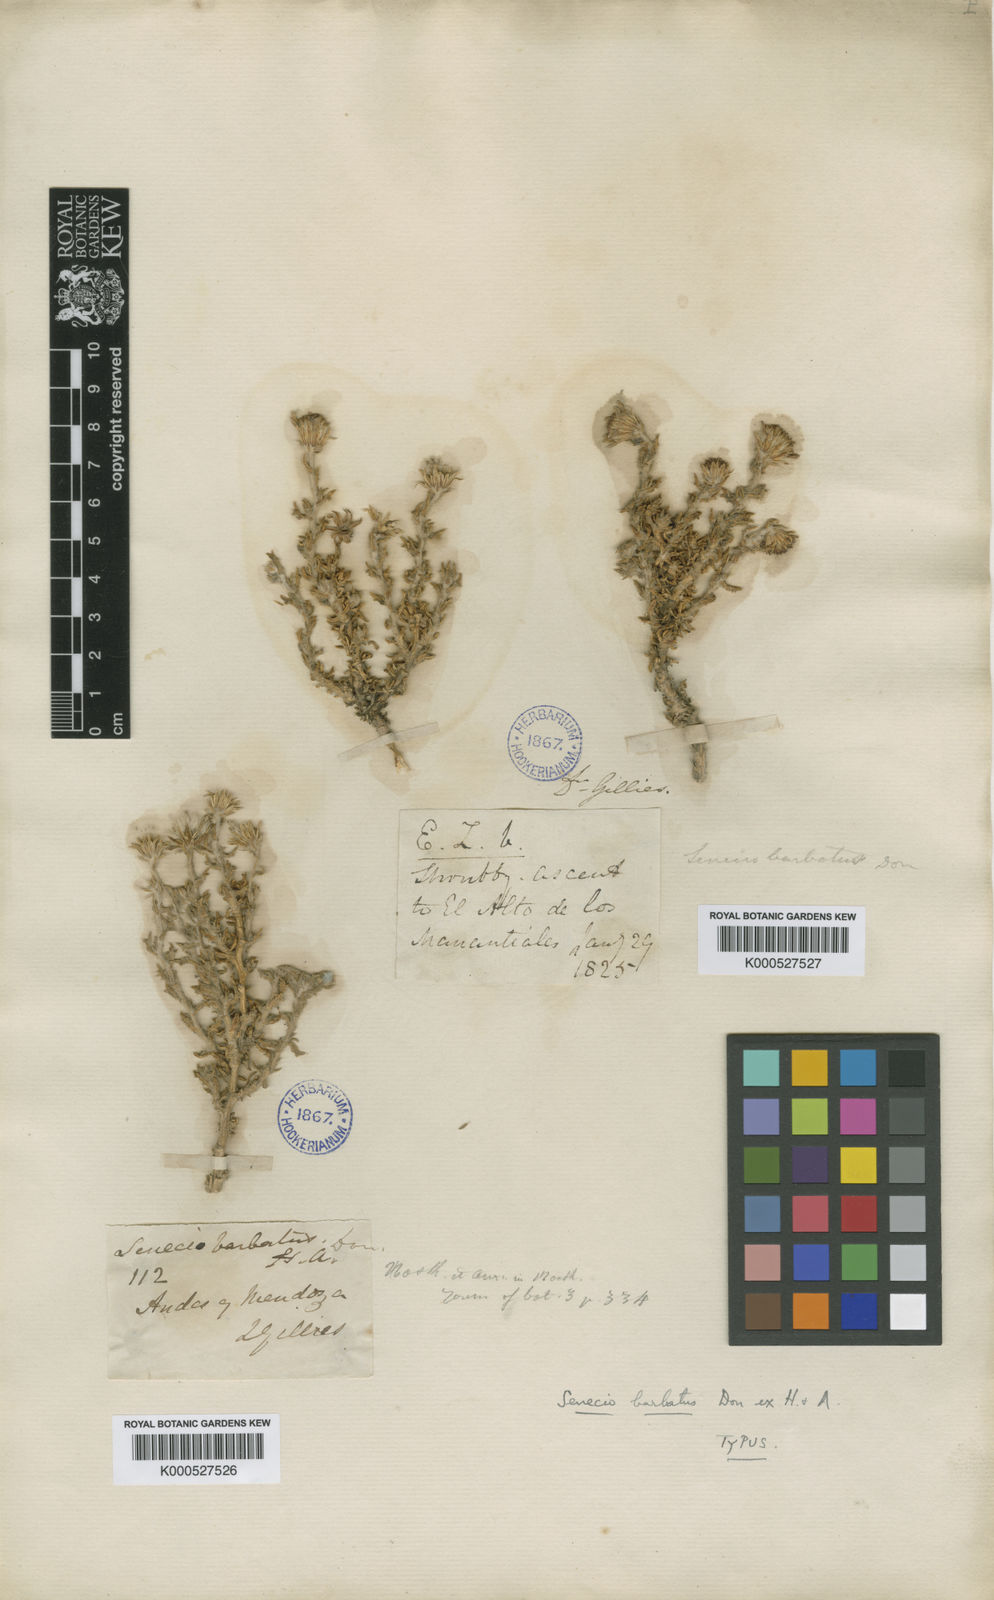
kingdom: Plantae
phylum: Tracheophyta
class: Magnoliopsida
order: Asterales
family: Asteraceae
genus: Senecio
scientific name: Senecio pogonias
